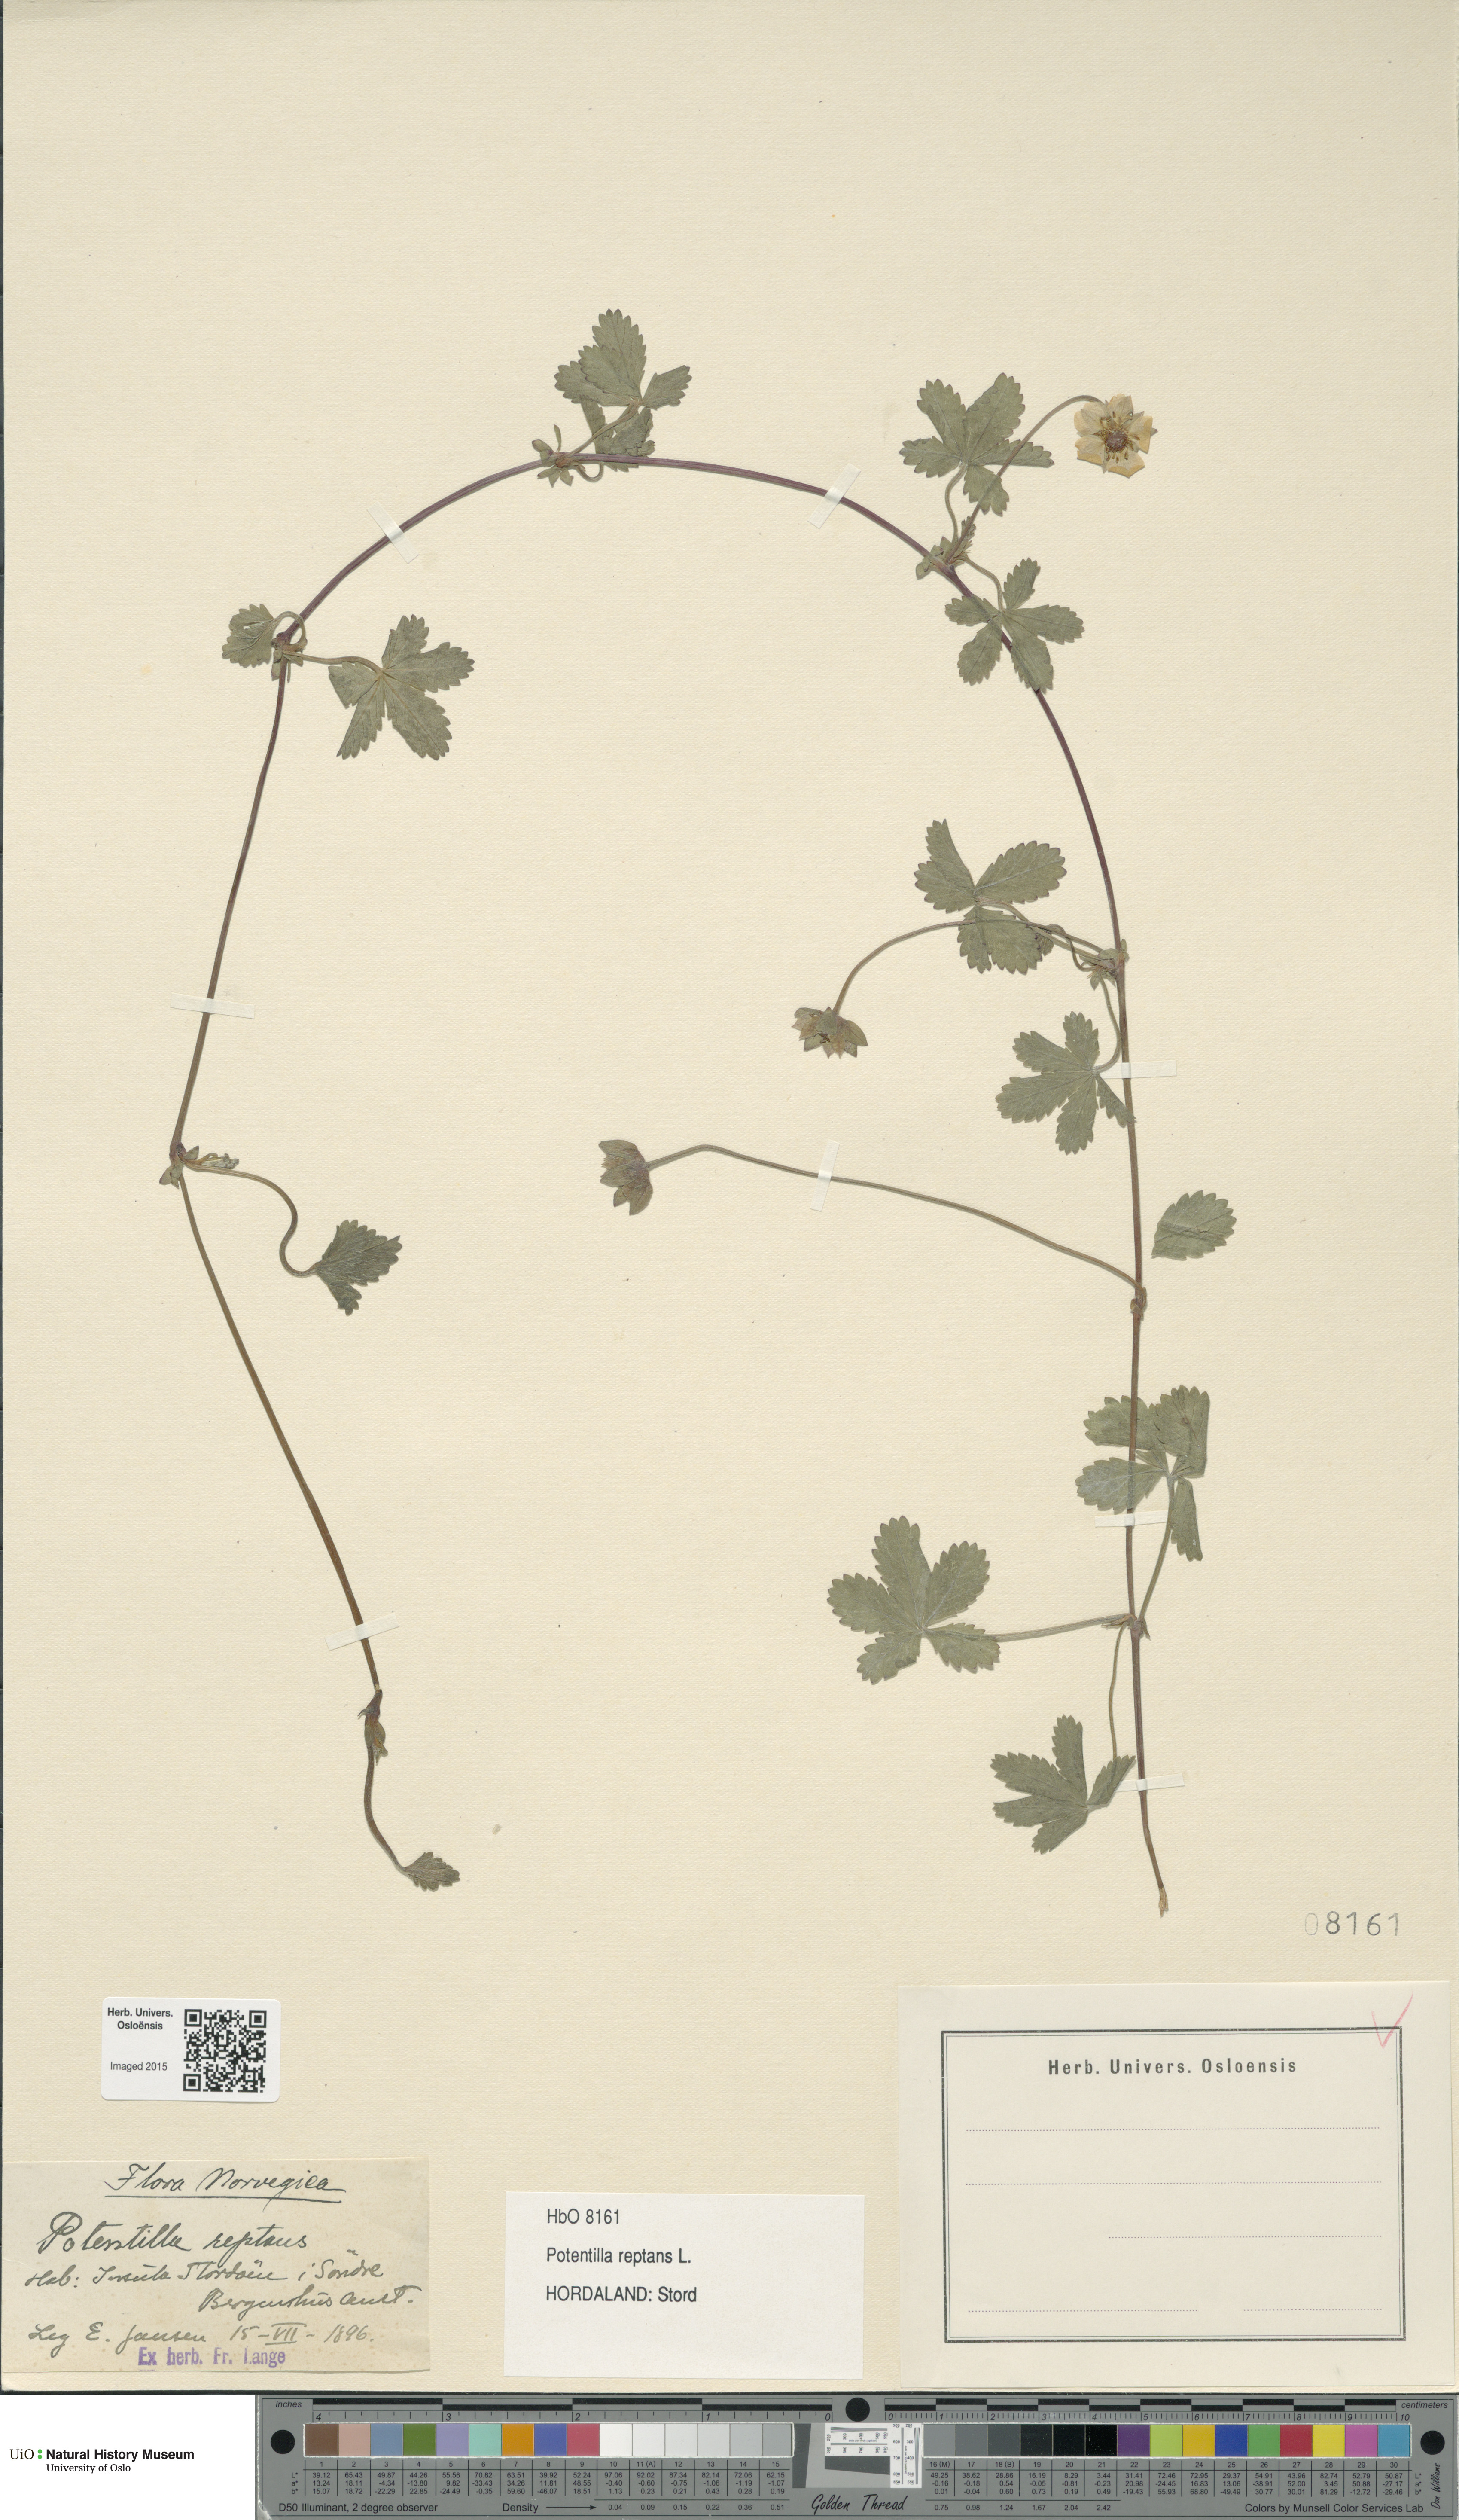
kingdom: Plantae
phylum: Tracheophyta
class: Magnoliopsida
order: Rosales
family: Rosaceae
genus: Potentilla
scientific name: Potentilla reptans
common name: Creeping cinquefoil
